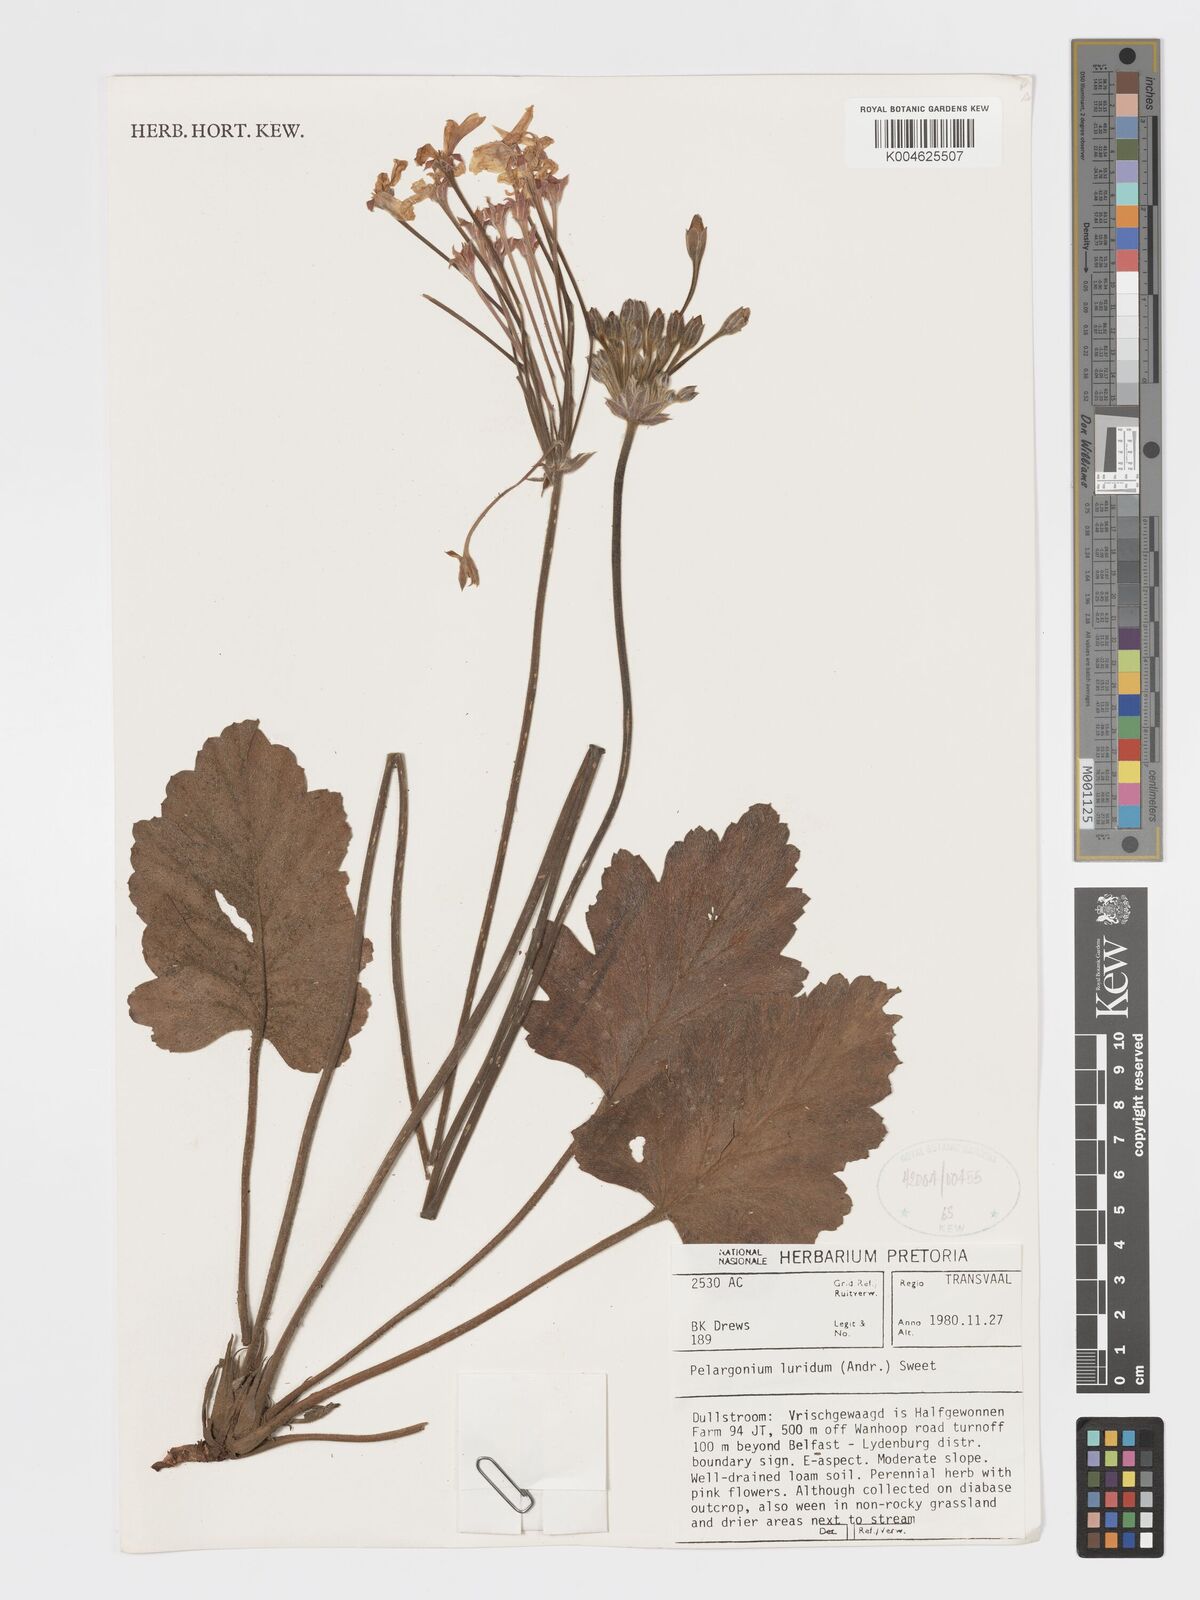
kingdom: Plantae
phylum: Tracheophyta
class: Magnoliopsida
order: Geraniales
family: Geraniaceae
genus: Pelargonium
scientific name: Pelargonium luridum
